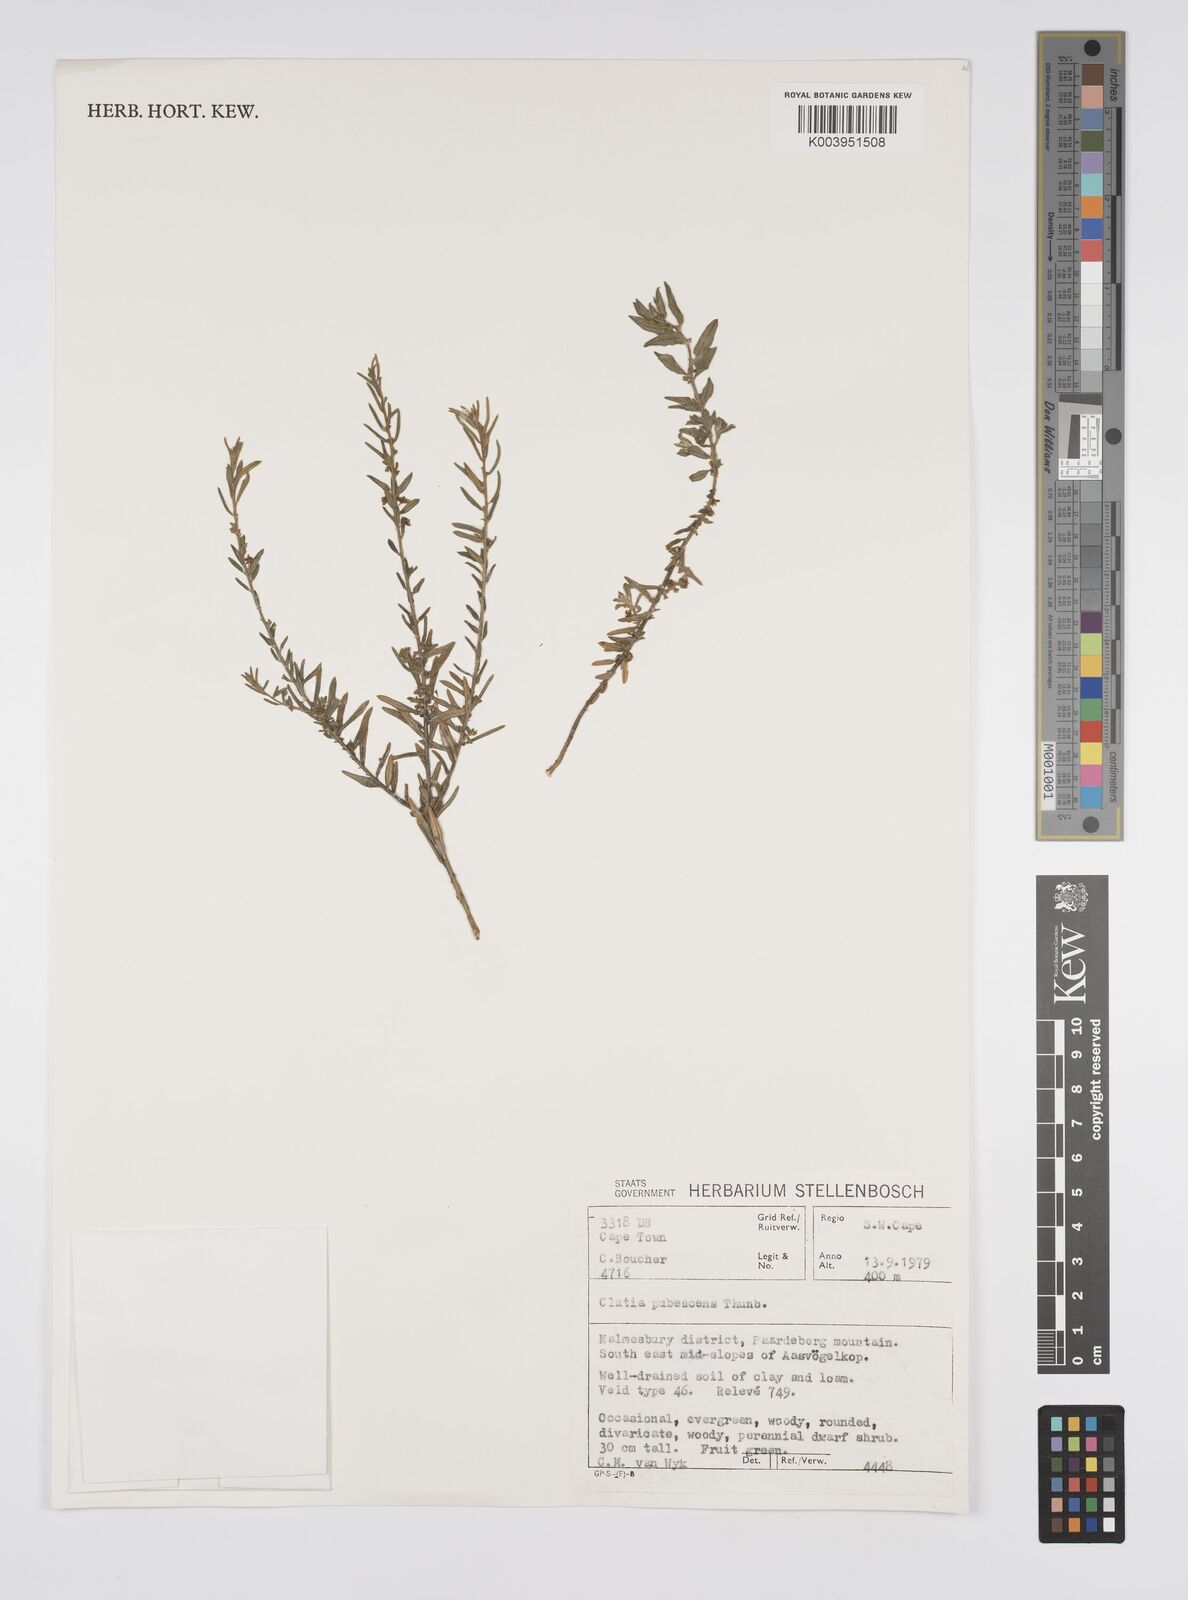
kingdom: Plantae
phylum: Tracheophyta
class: Magnoliopsida
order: Malpighiales
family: Peraceae
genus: Clutia
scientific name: Clutia
